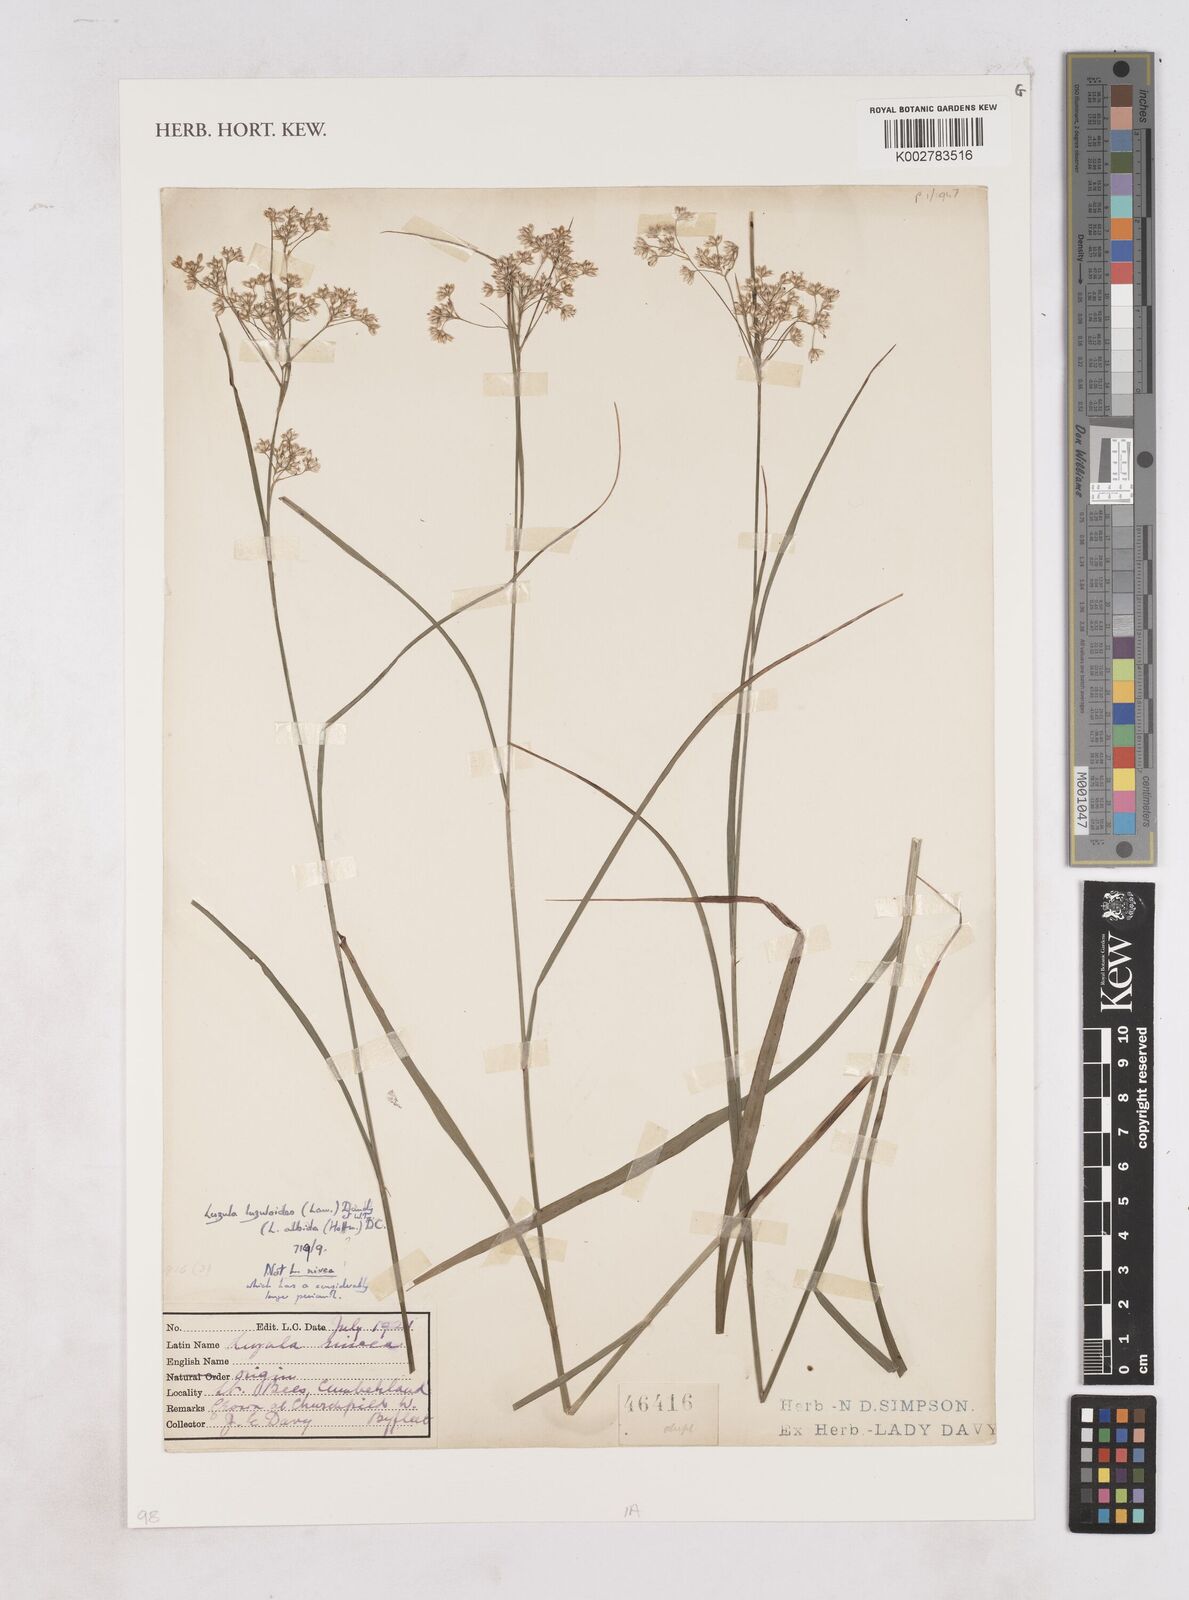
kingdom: Plantae
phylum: Tracheophyta
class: Liliopsida
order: Poales
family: Juncaceae
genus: Luzula
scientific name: Luzula luzuloides
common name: White wood-rush
